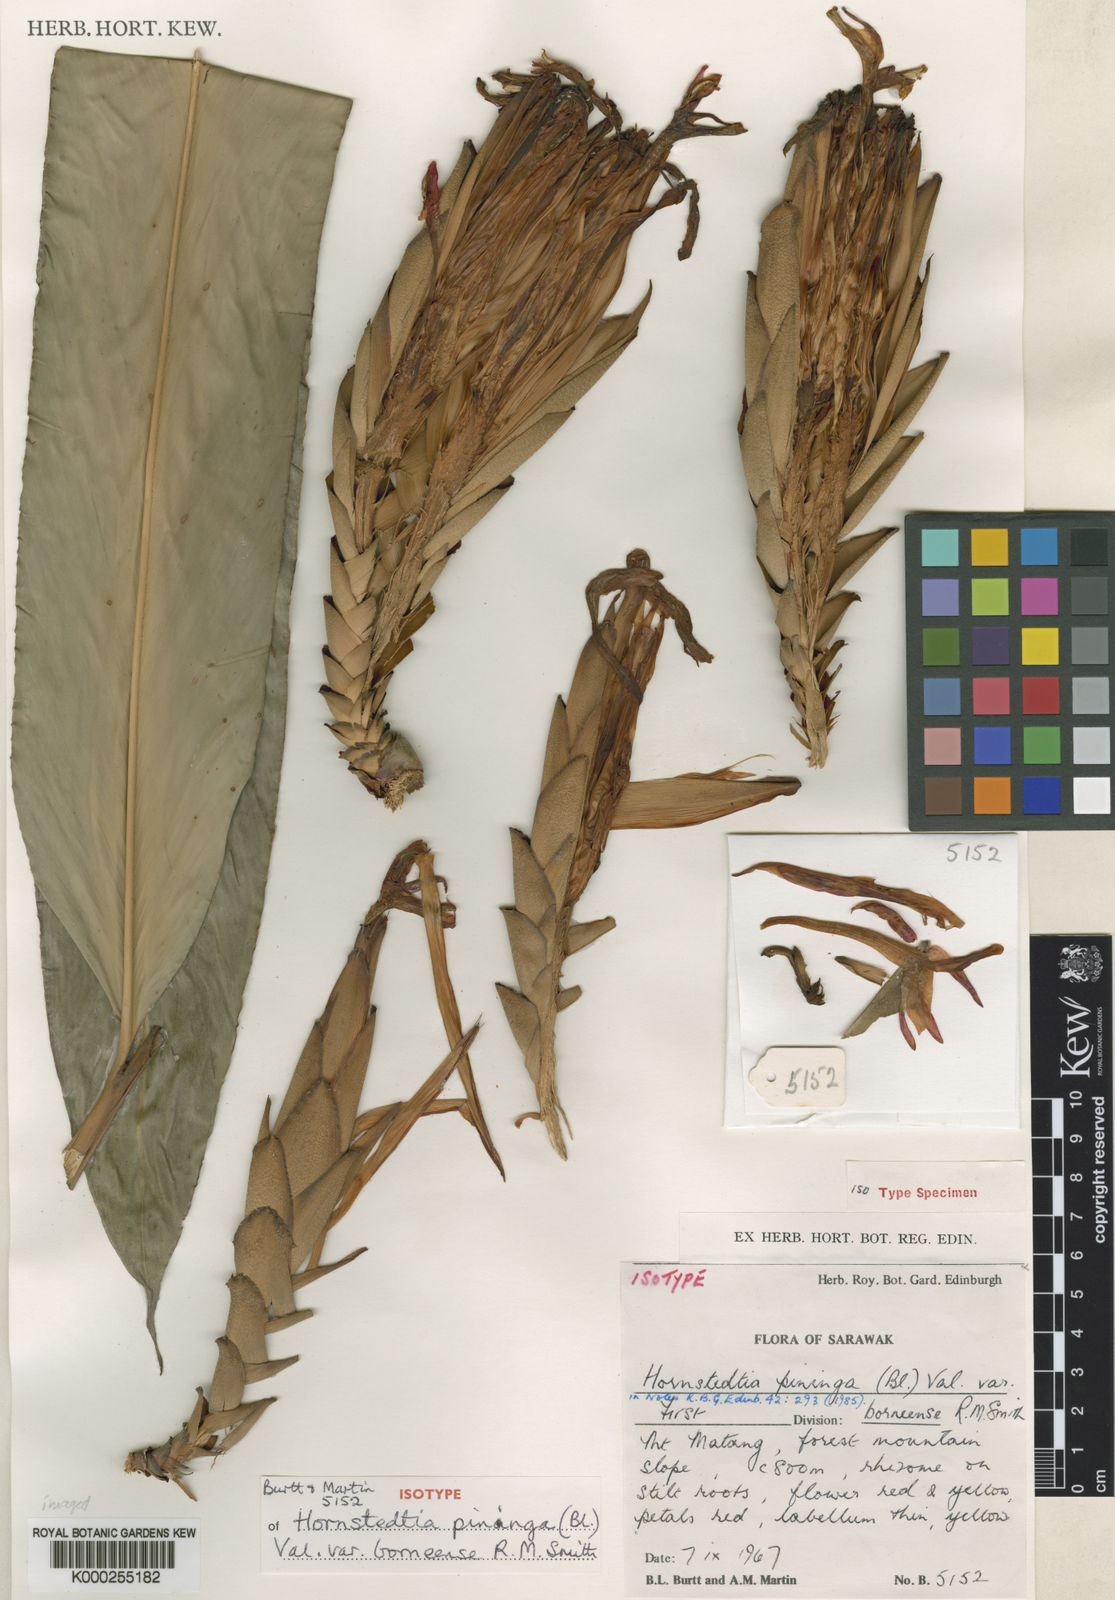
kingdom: Plantae
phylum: Tracheophyta
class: Liliopsida
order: Zingiberales
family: Zingiberaceae
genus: Hornstedtia
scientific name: Hornstedtia pininga
